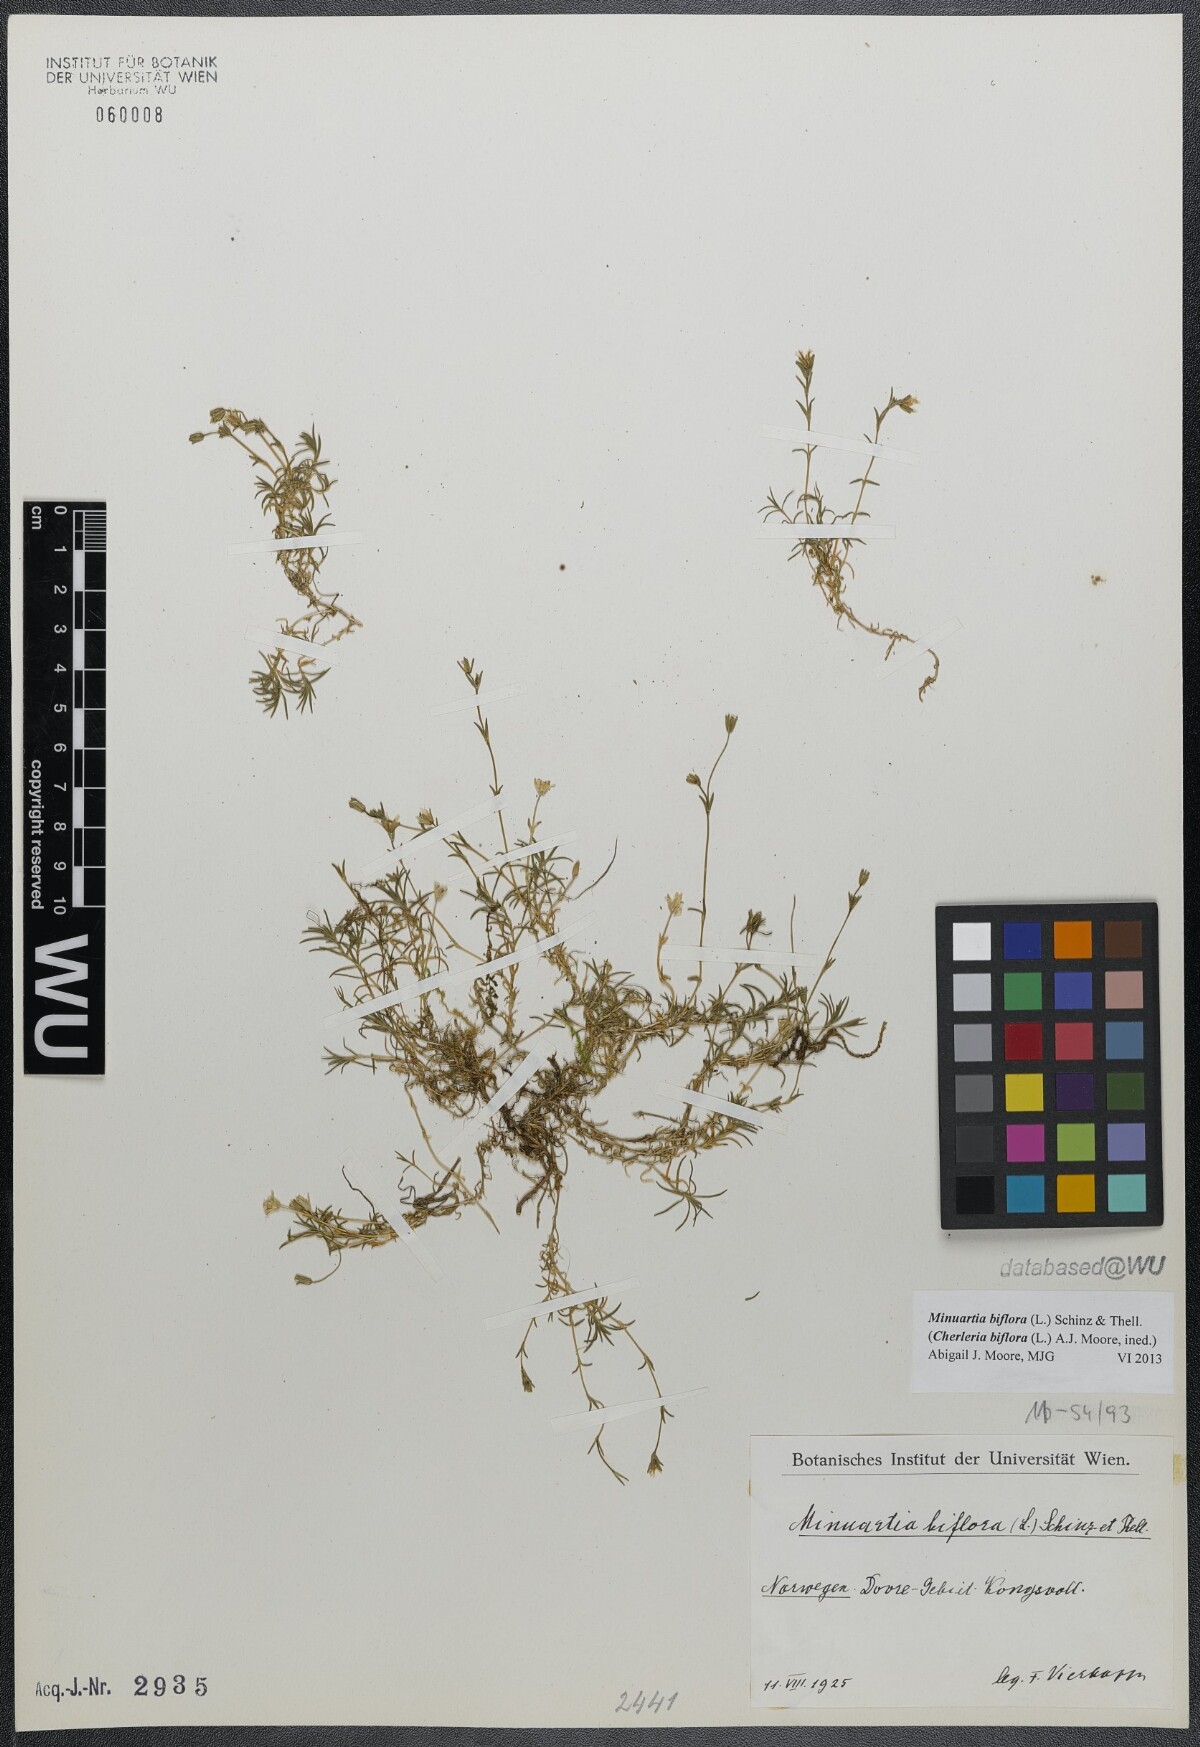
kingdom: Plantae
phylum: Tracheophyta
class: Magnoliopsida
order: Caryophyllales
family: Caryophyllaceae
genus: Cherleria
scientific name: Cherleria biflora
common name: Mountain sandwort
